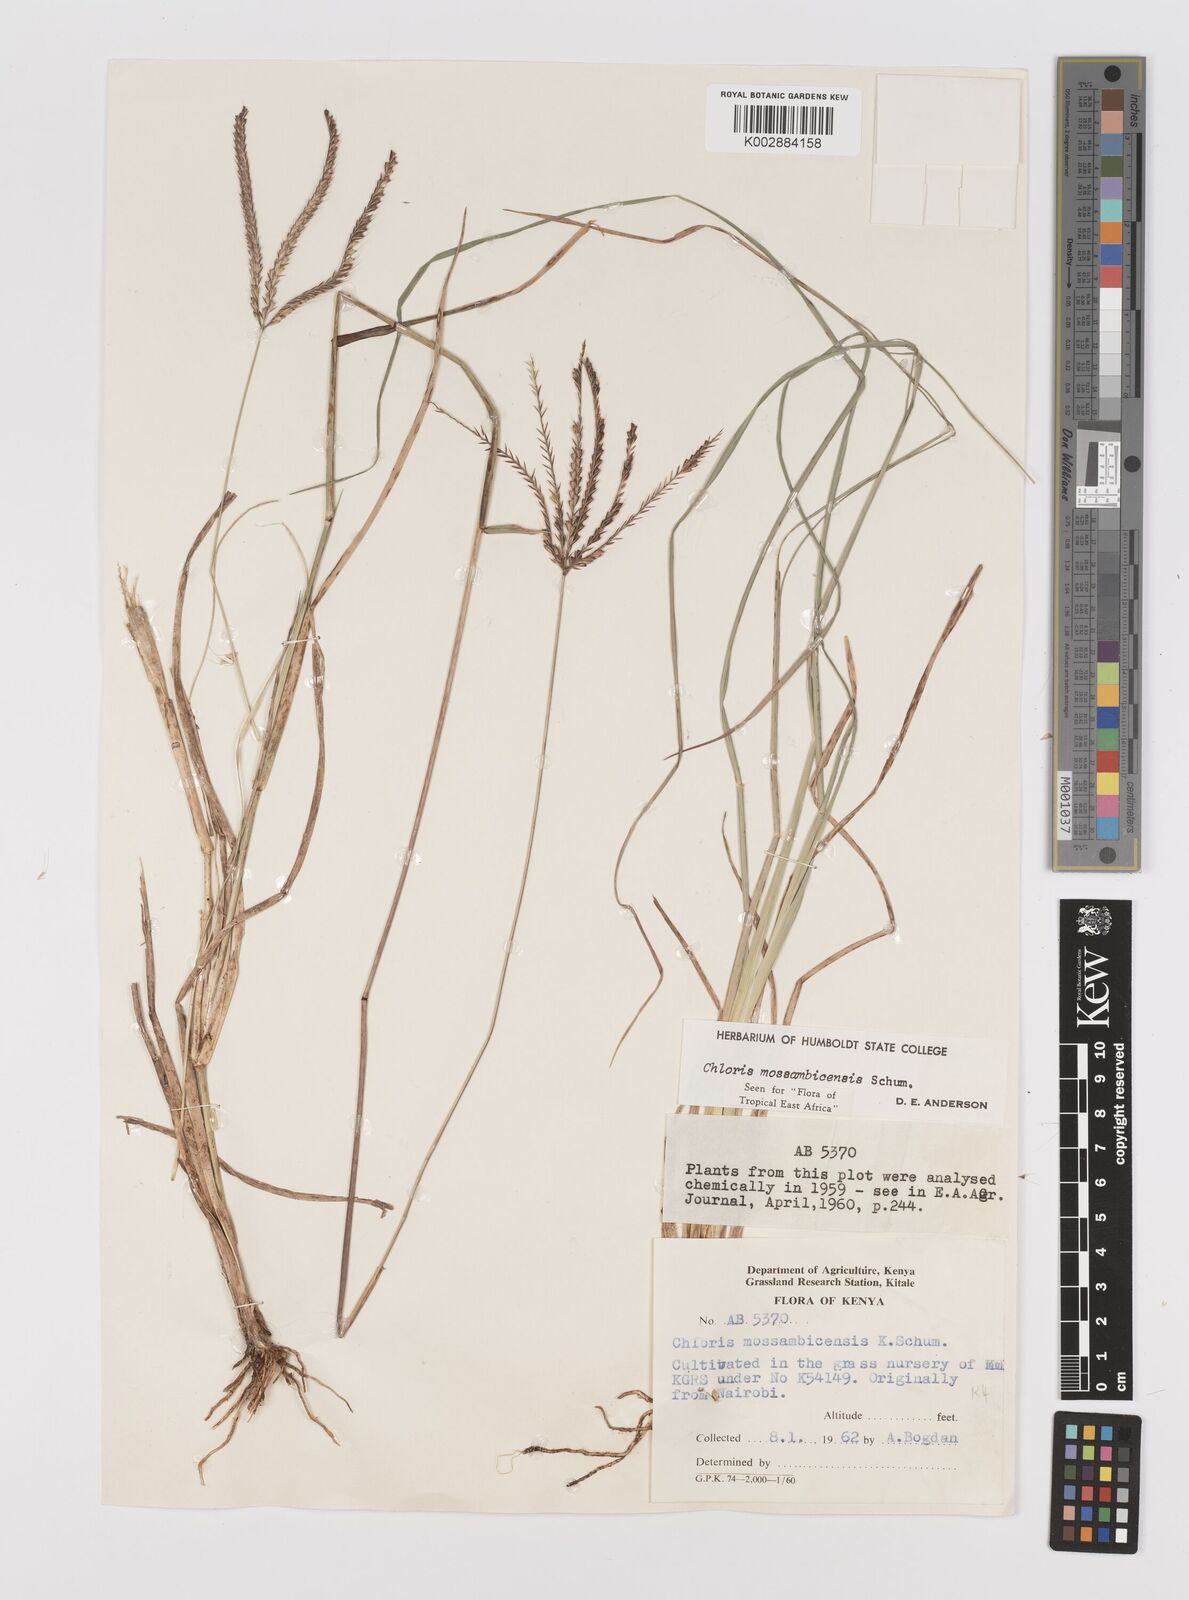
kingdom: Plantae
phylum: Tracheophyta
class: Liliopsida
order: Poales
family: Poaceae
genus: Chloris
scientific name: Chloris mossambicensis
